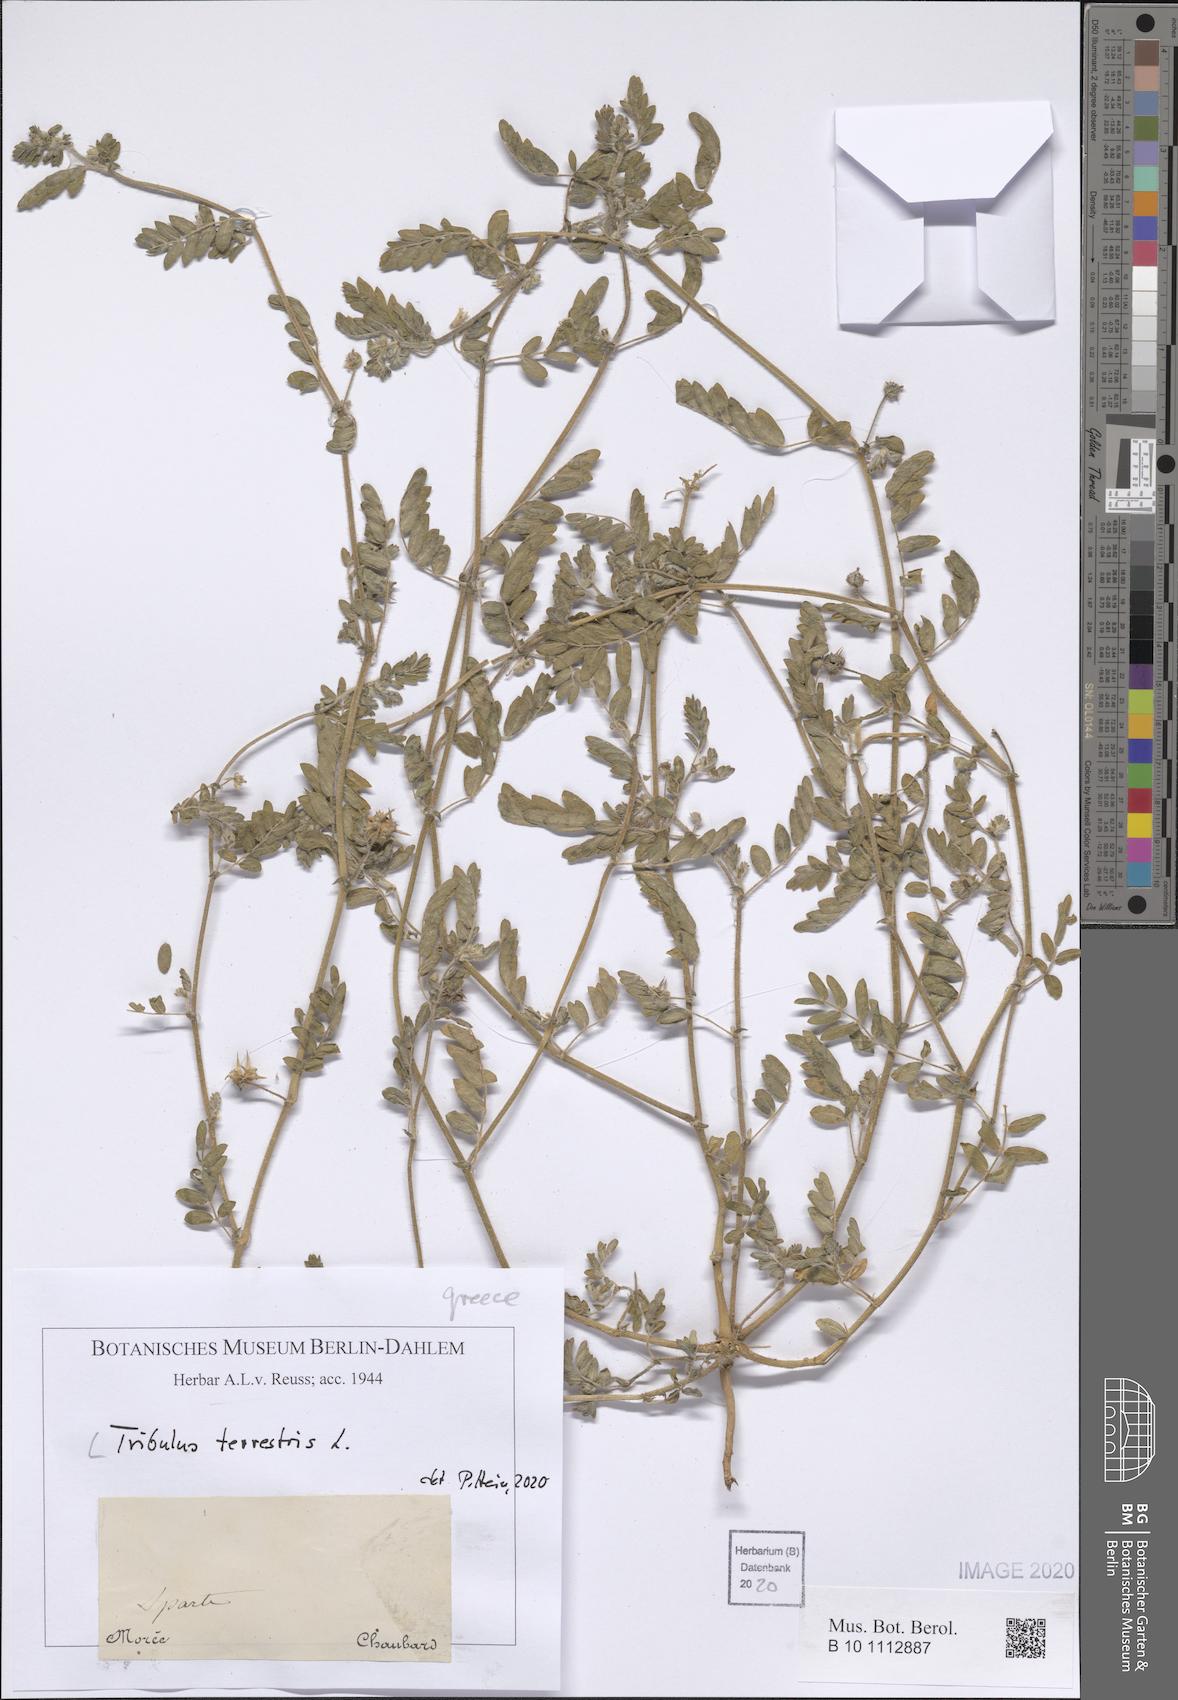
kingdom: Plantae
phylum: Tracheophyta
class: Magnoliopsida
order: Zygophyllales
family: Zygophyllaceae
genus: Tribulus
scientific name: Tribulus terrestris
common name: Puncturevine
